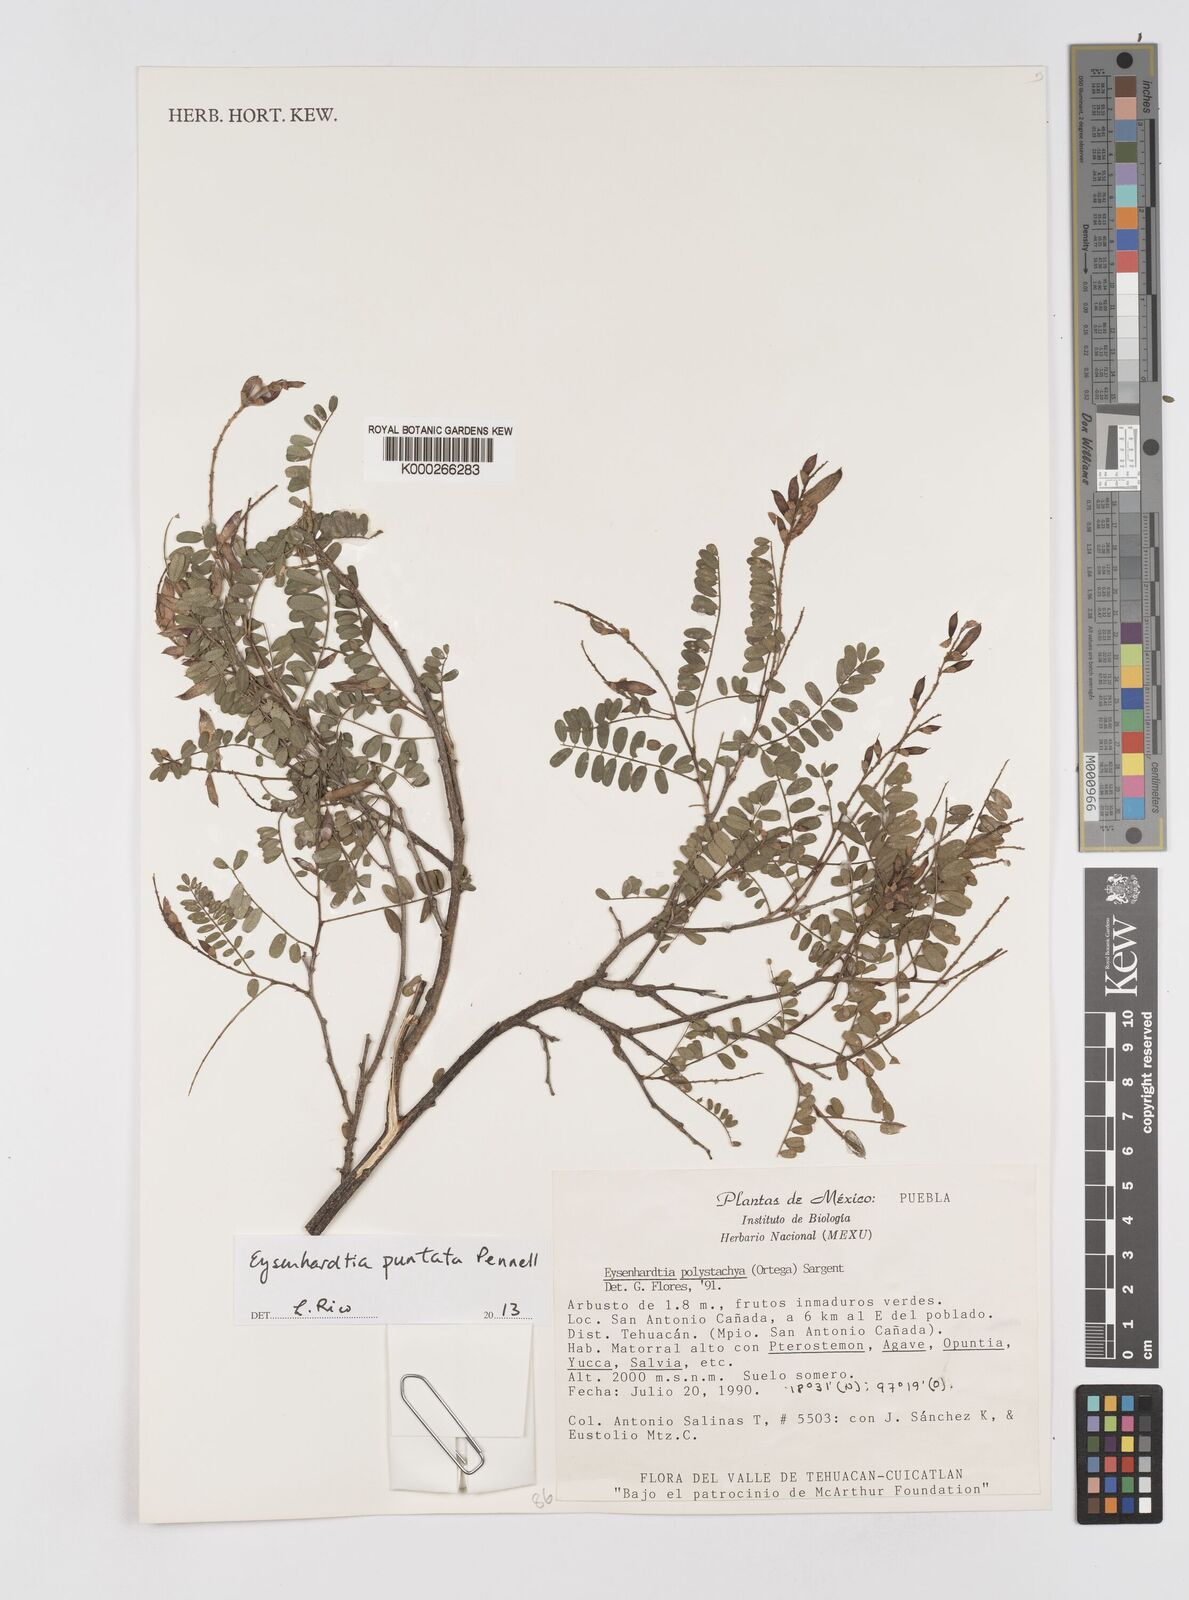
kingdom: Plantae
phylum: Tracheophyta
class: Magnoliopsida
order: Fabales
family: Fabaceae
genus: Eysenhardtia
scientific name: Eysenhardtia punctata
